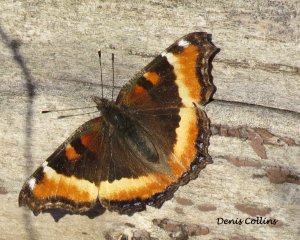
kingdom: Animalia
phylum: Arthropoda
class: Insecta
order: Lepidoptera
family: Nymphalidae
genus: Aglais
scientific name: Aglais milberti
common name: Milbert's Tortoiseshell
